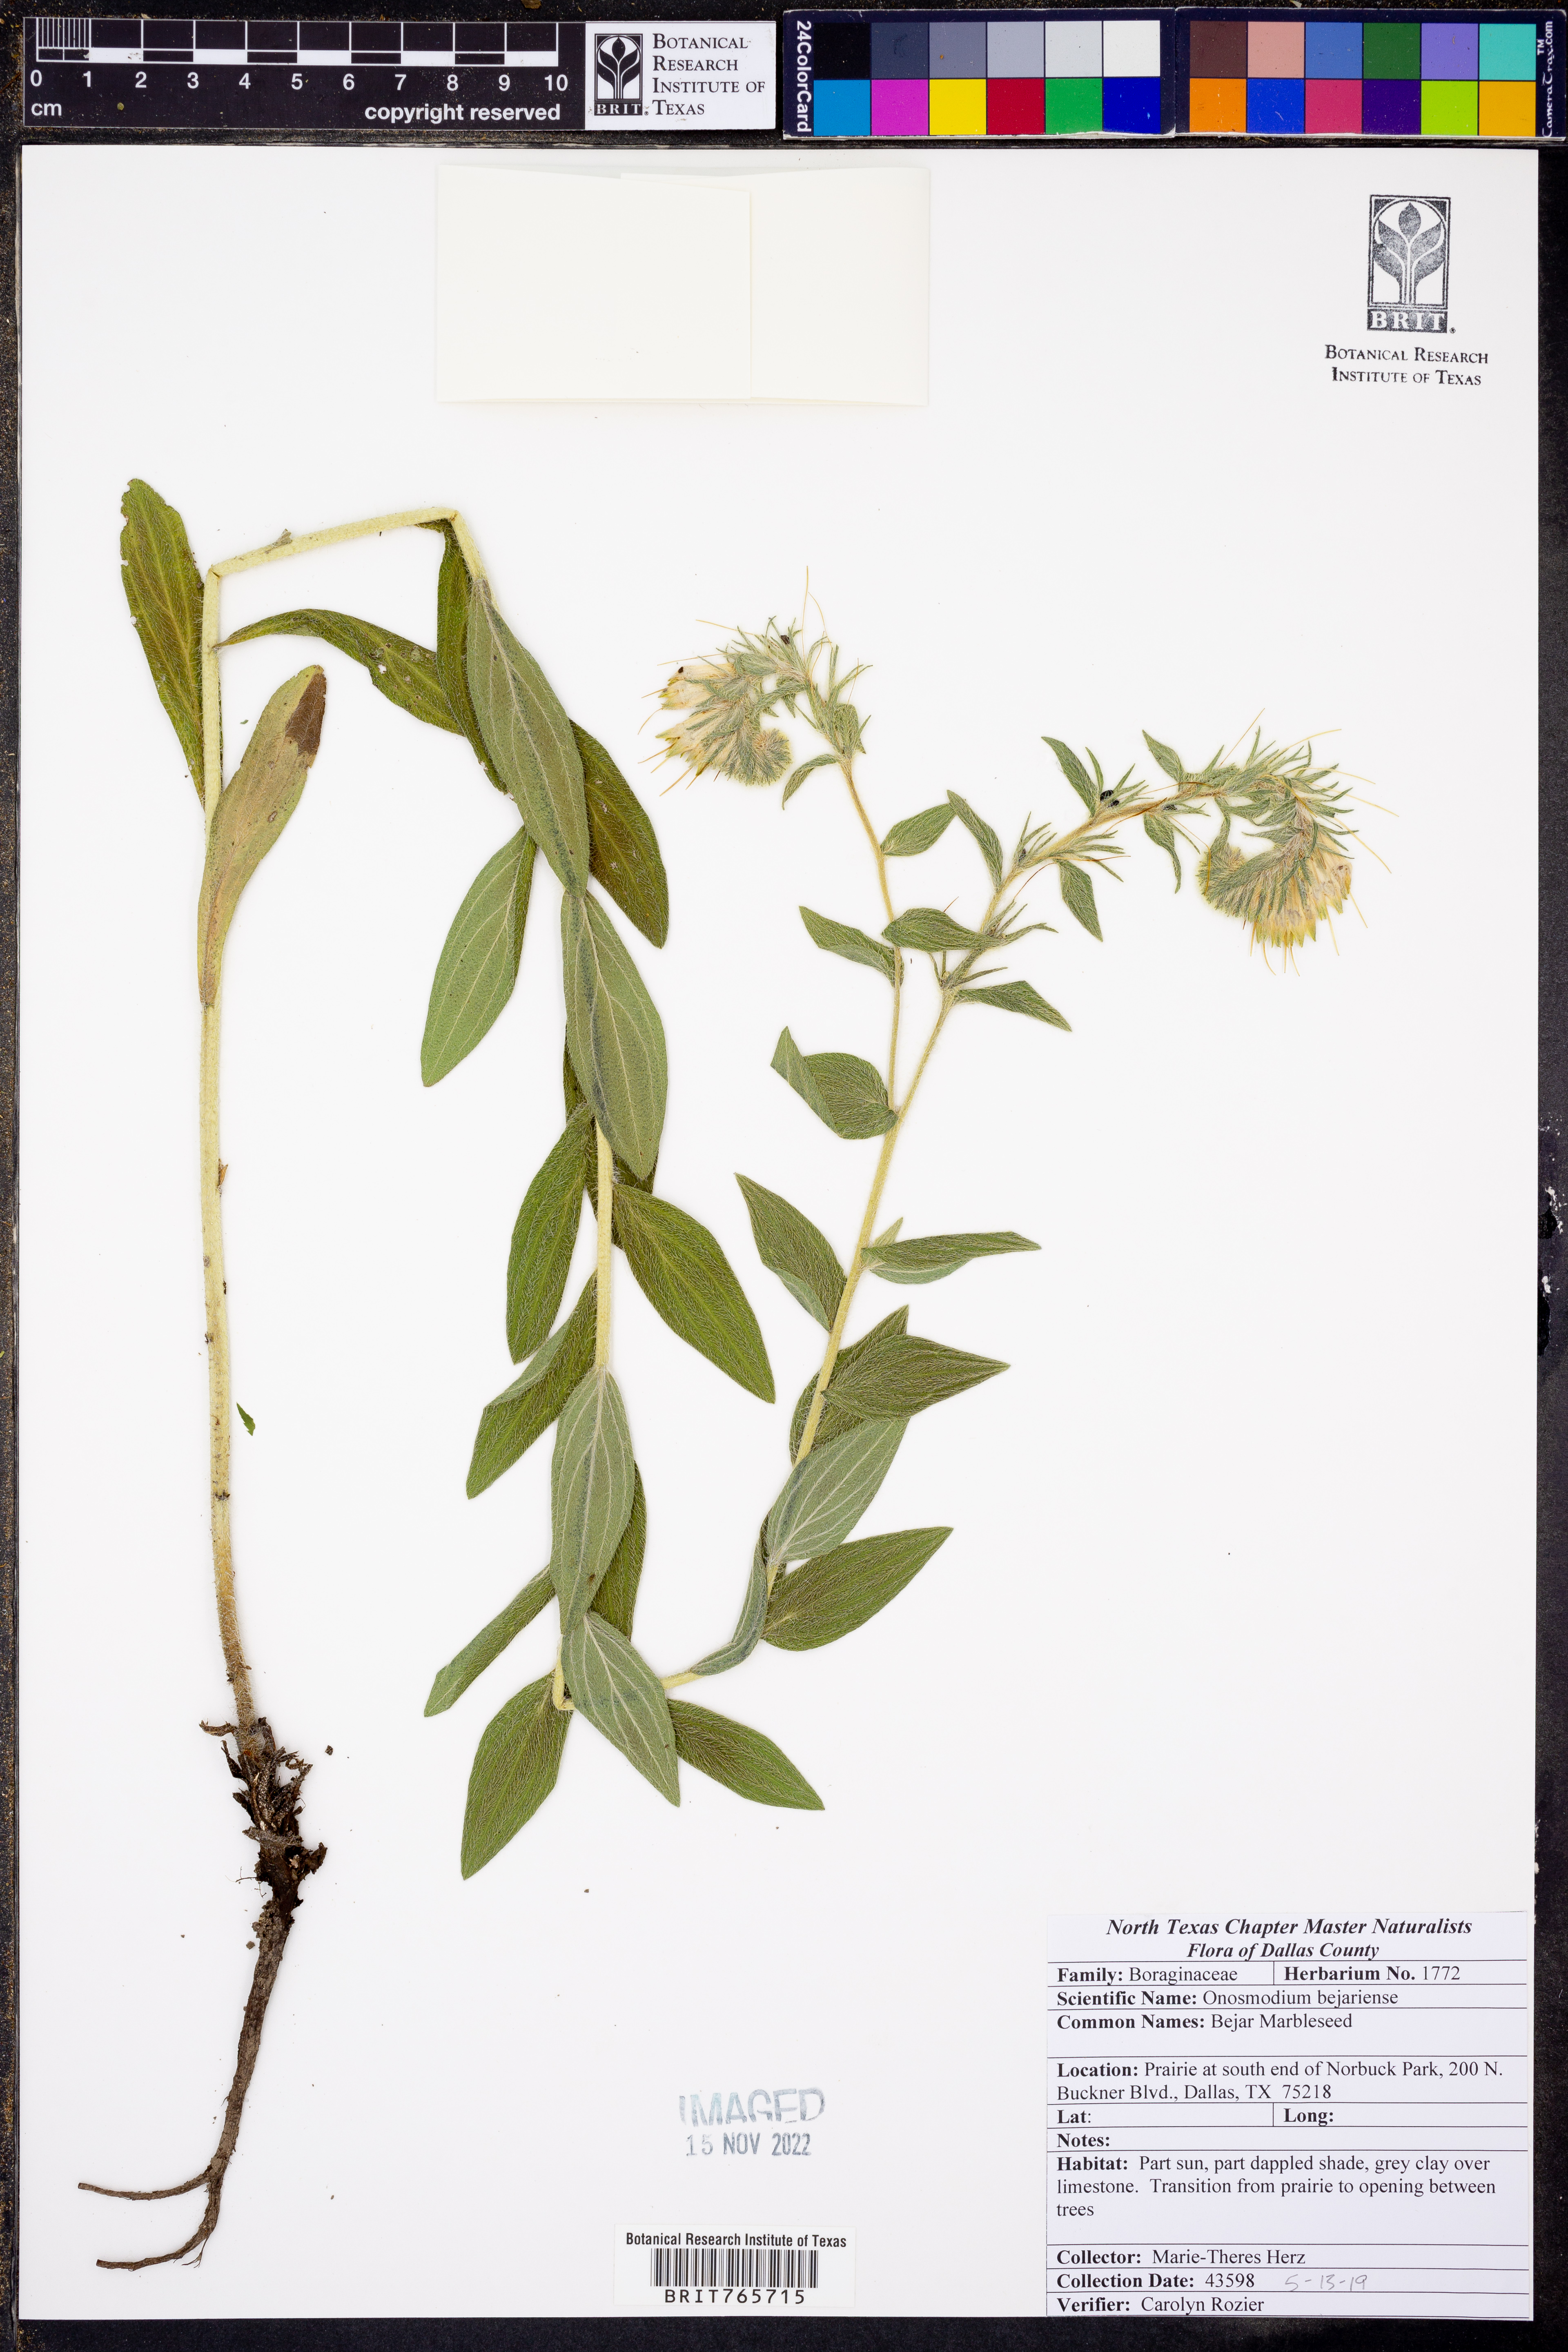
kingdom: Plantae
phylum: Tracheophyta
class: Magnoliopsida
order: Boraginales
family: Boraginaceae
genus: Lithospermum
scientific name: Lithospermum molle
